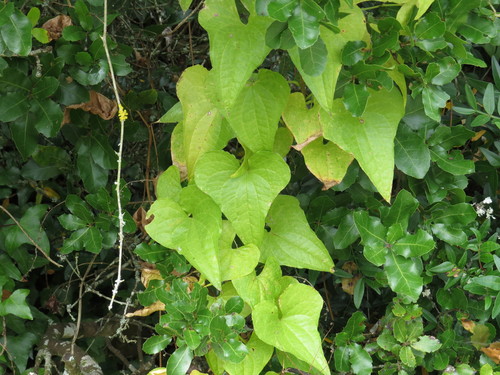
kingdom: Plantae
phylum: Tracheophyta
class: Liliopsida
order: Dioscoreales
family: Dioscoreaceae
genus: Dioscorea
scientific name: Dioscorea communis
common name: Black-bindweed
